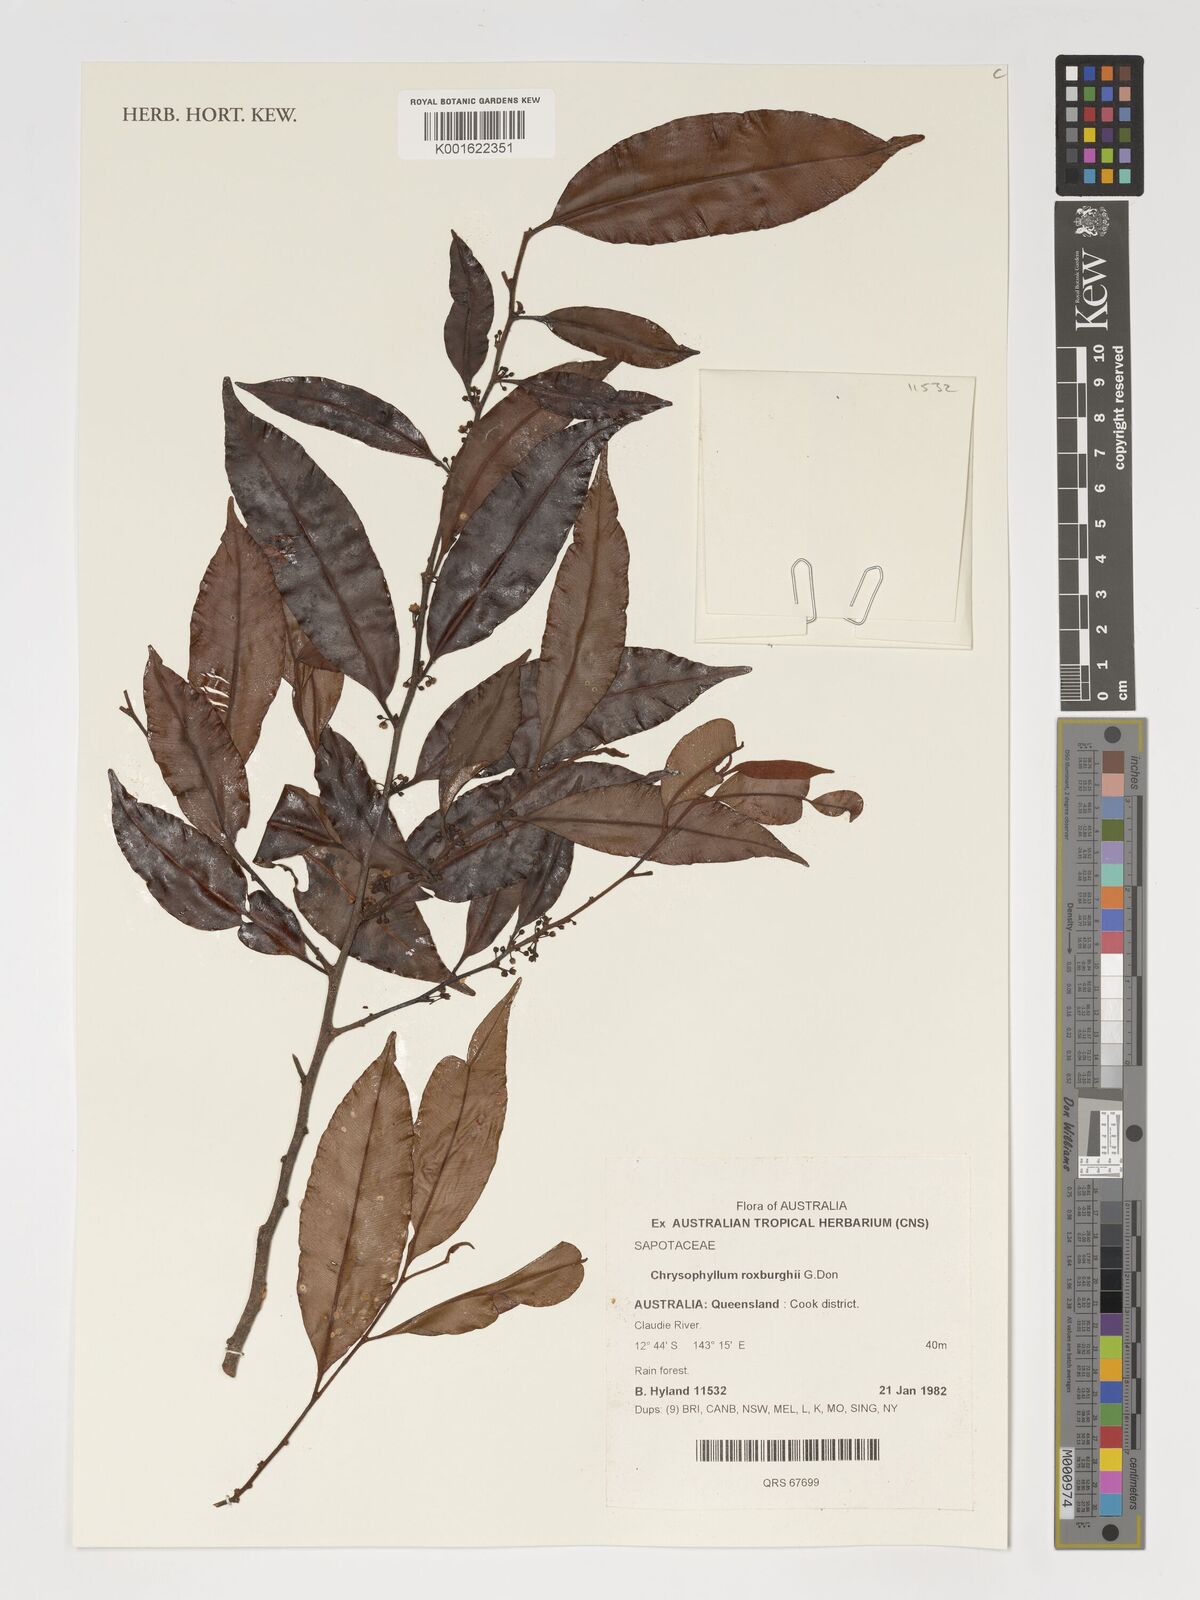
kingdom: Plantae
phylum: Tracheophyta
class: Magnoliopsida
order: Ericales
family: Sapotaceae
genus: Donella
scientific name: Donella lanceolata
